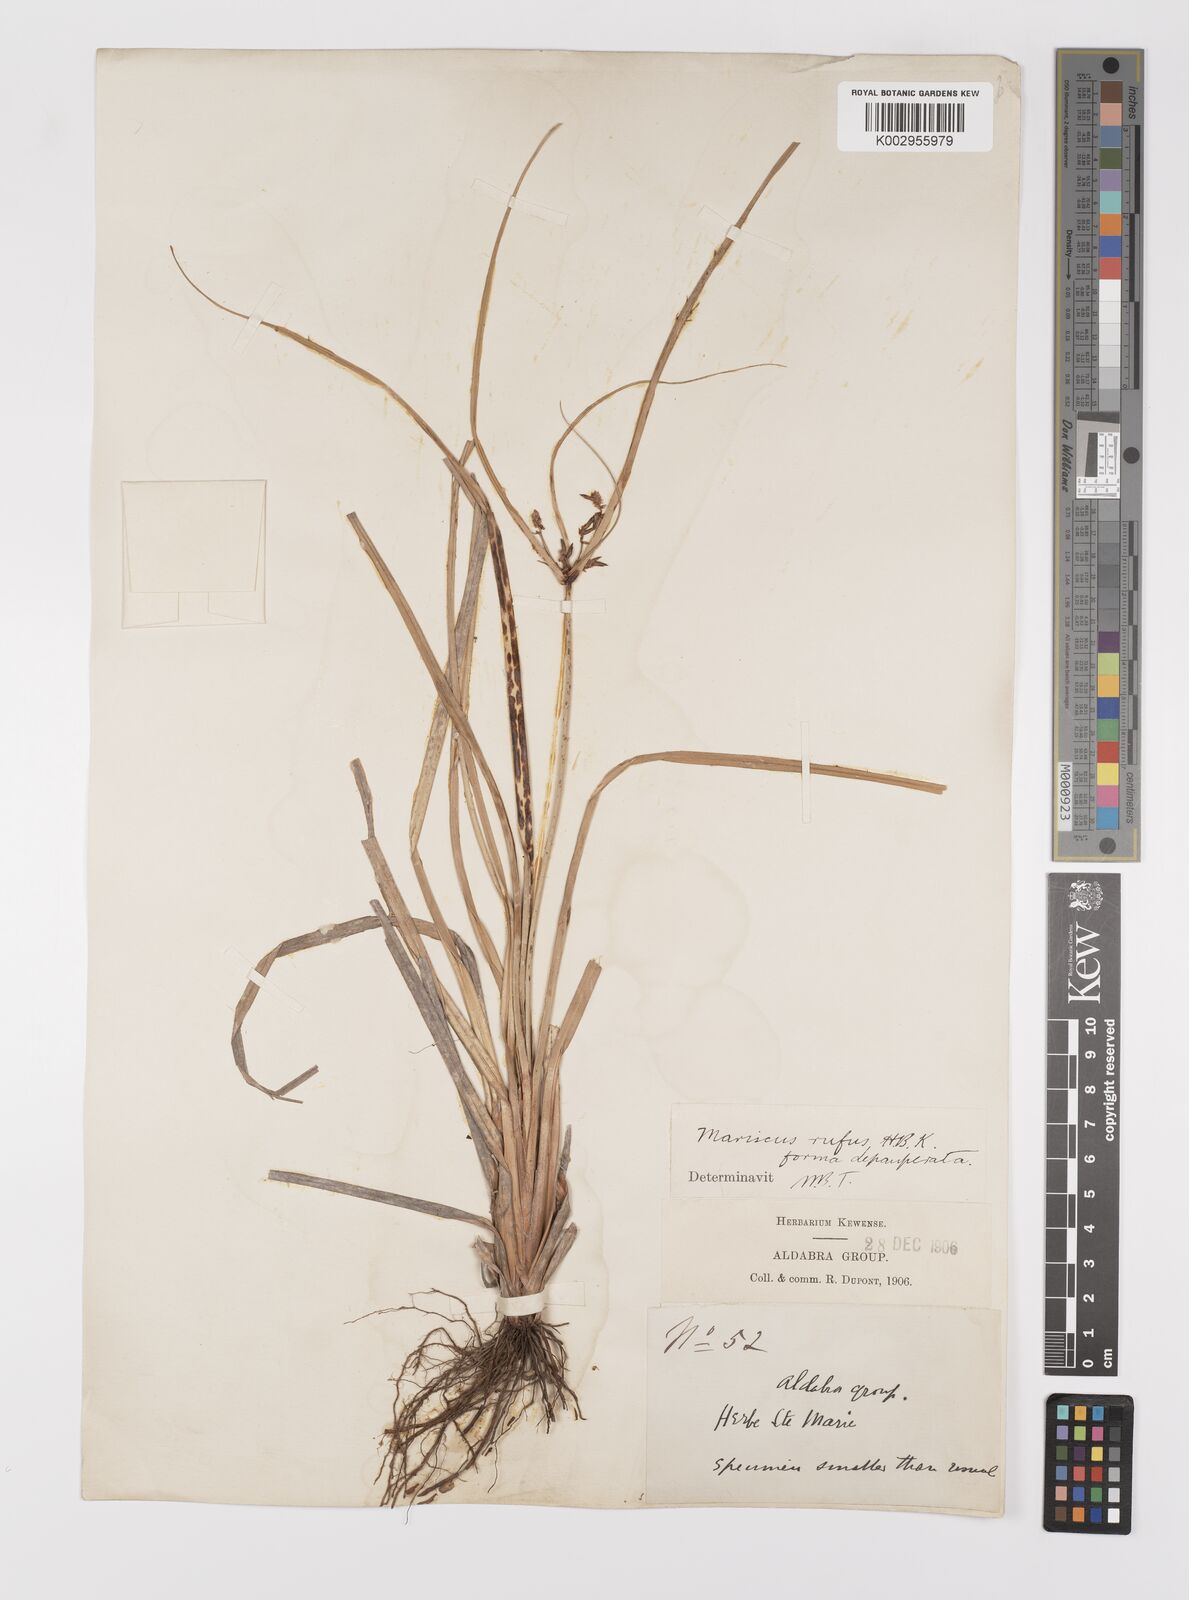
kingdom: Plantae
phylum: Tracheophyta
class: Liliopsida
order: Poales
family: Cyperaceae
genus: Cyperus
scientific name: Cyperus ligularis
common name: Swamp flat sedge
